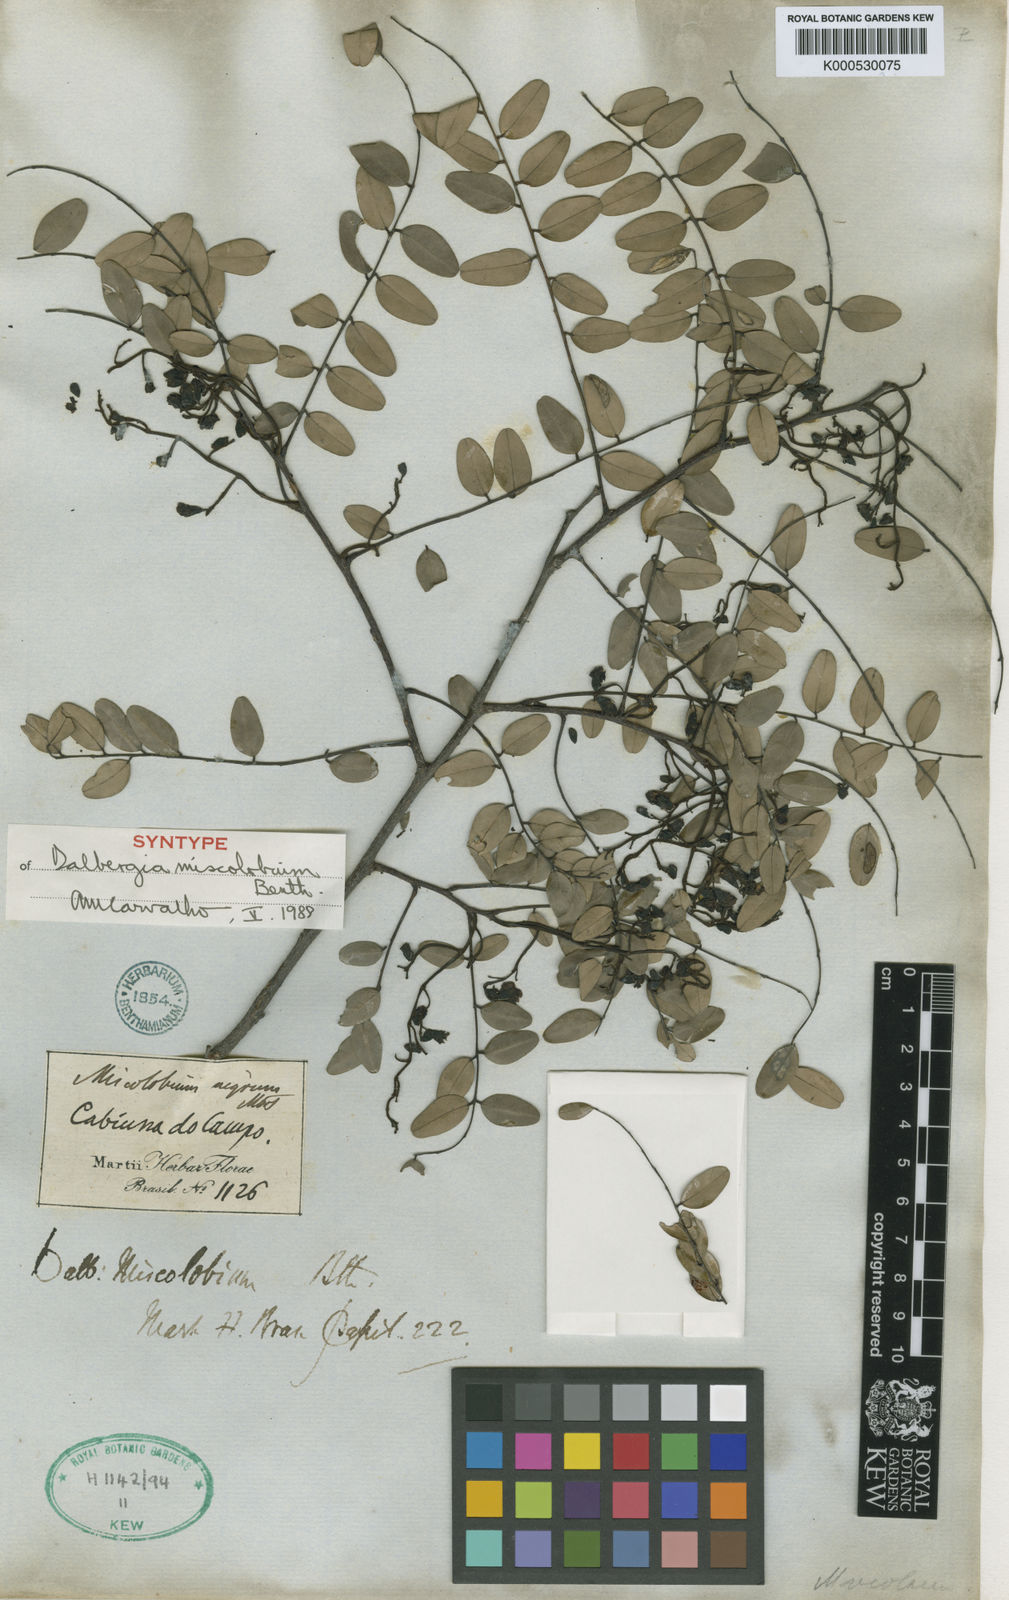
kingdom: Plantae
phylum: Tracheophyta
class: Magnoliopsida
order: Fabales
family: Fabaceae
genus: Dalbergia
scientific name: Dalbergia miscolobium
